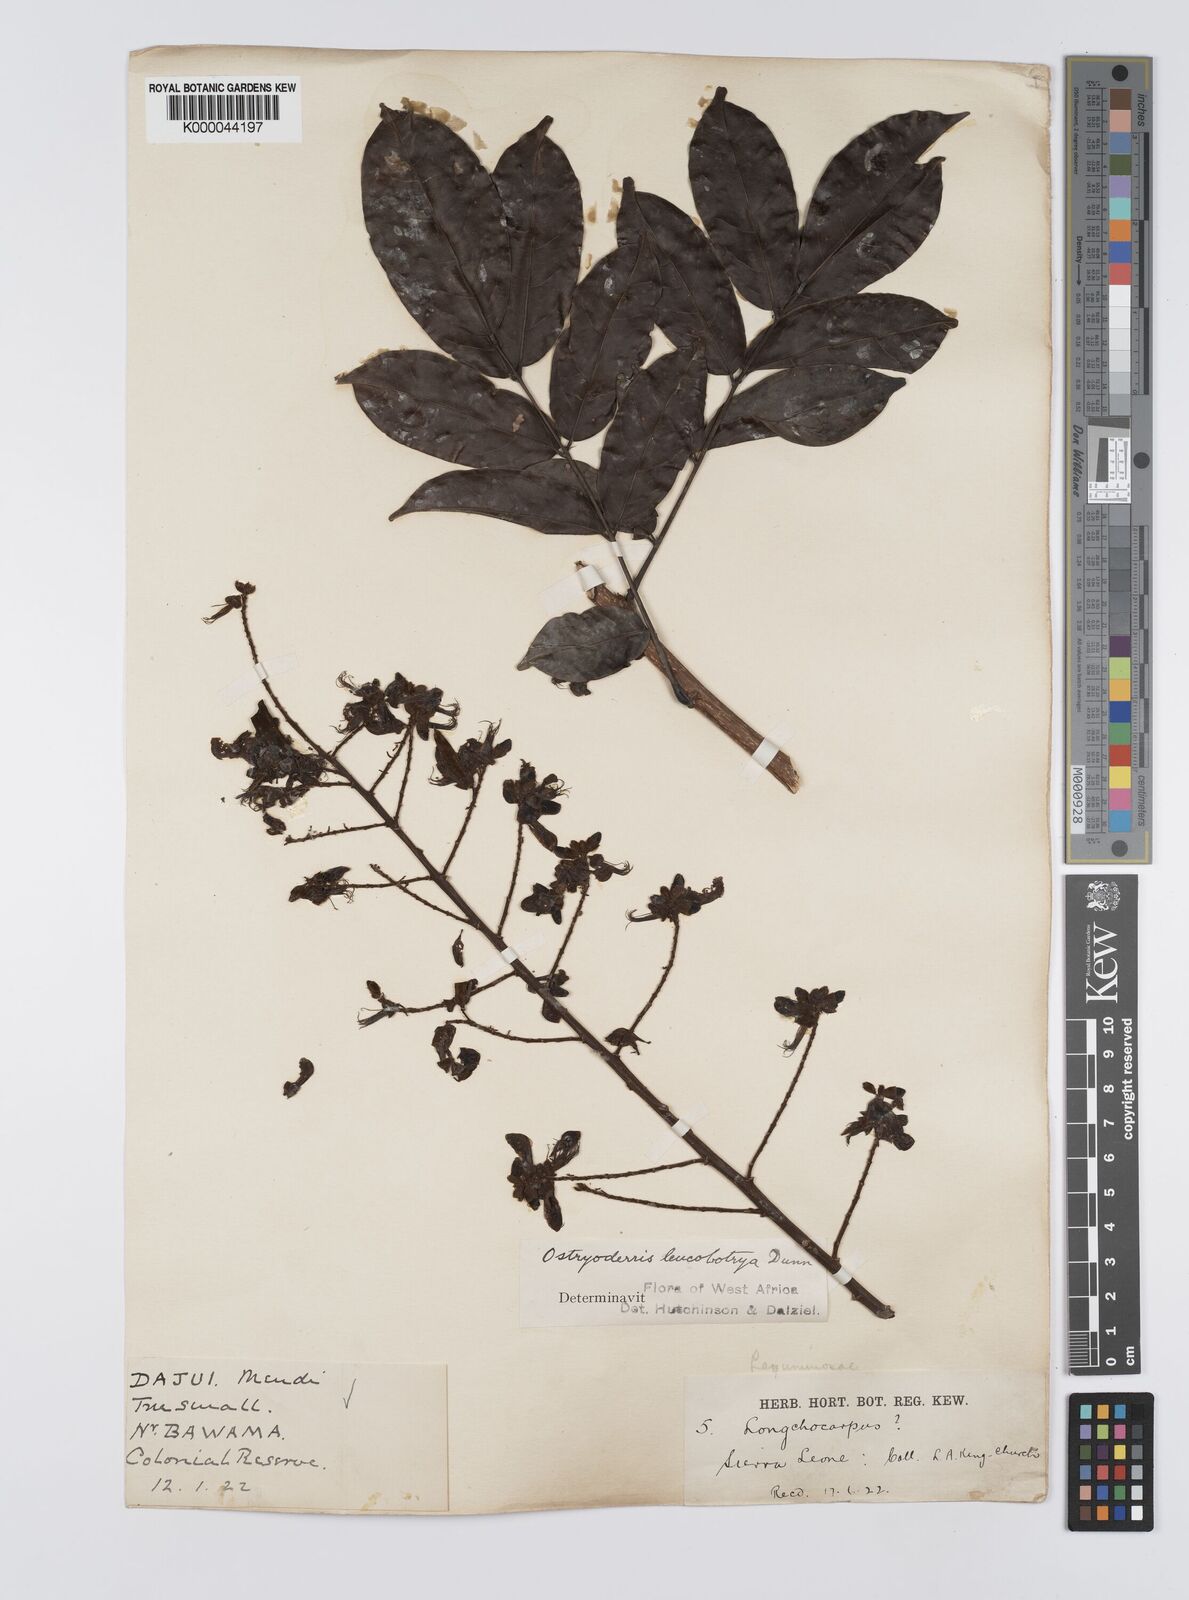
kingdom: Plantae
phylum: Tracheophyta
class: Magnoliopsida
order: Fabales
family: Fabaceae
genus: Aganope
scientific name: Aganope leucobotrya
